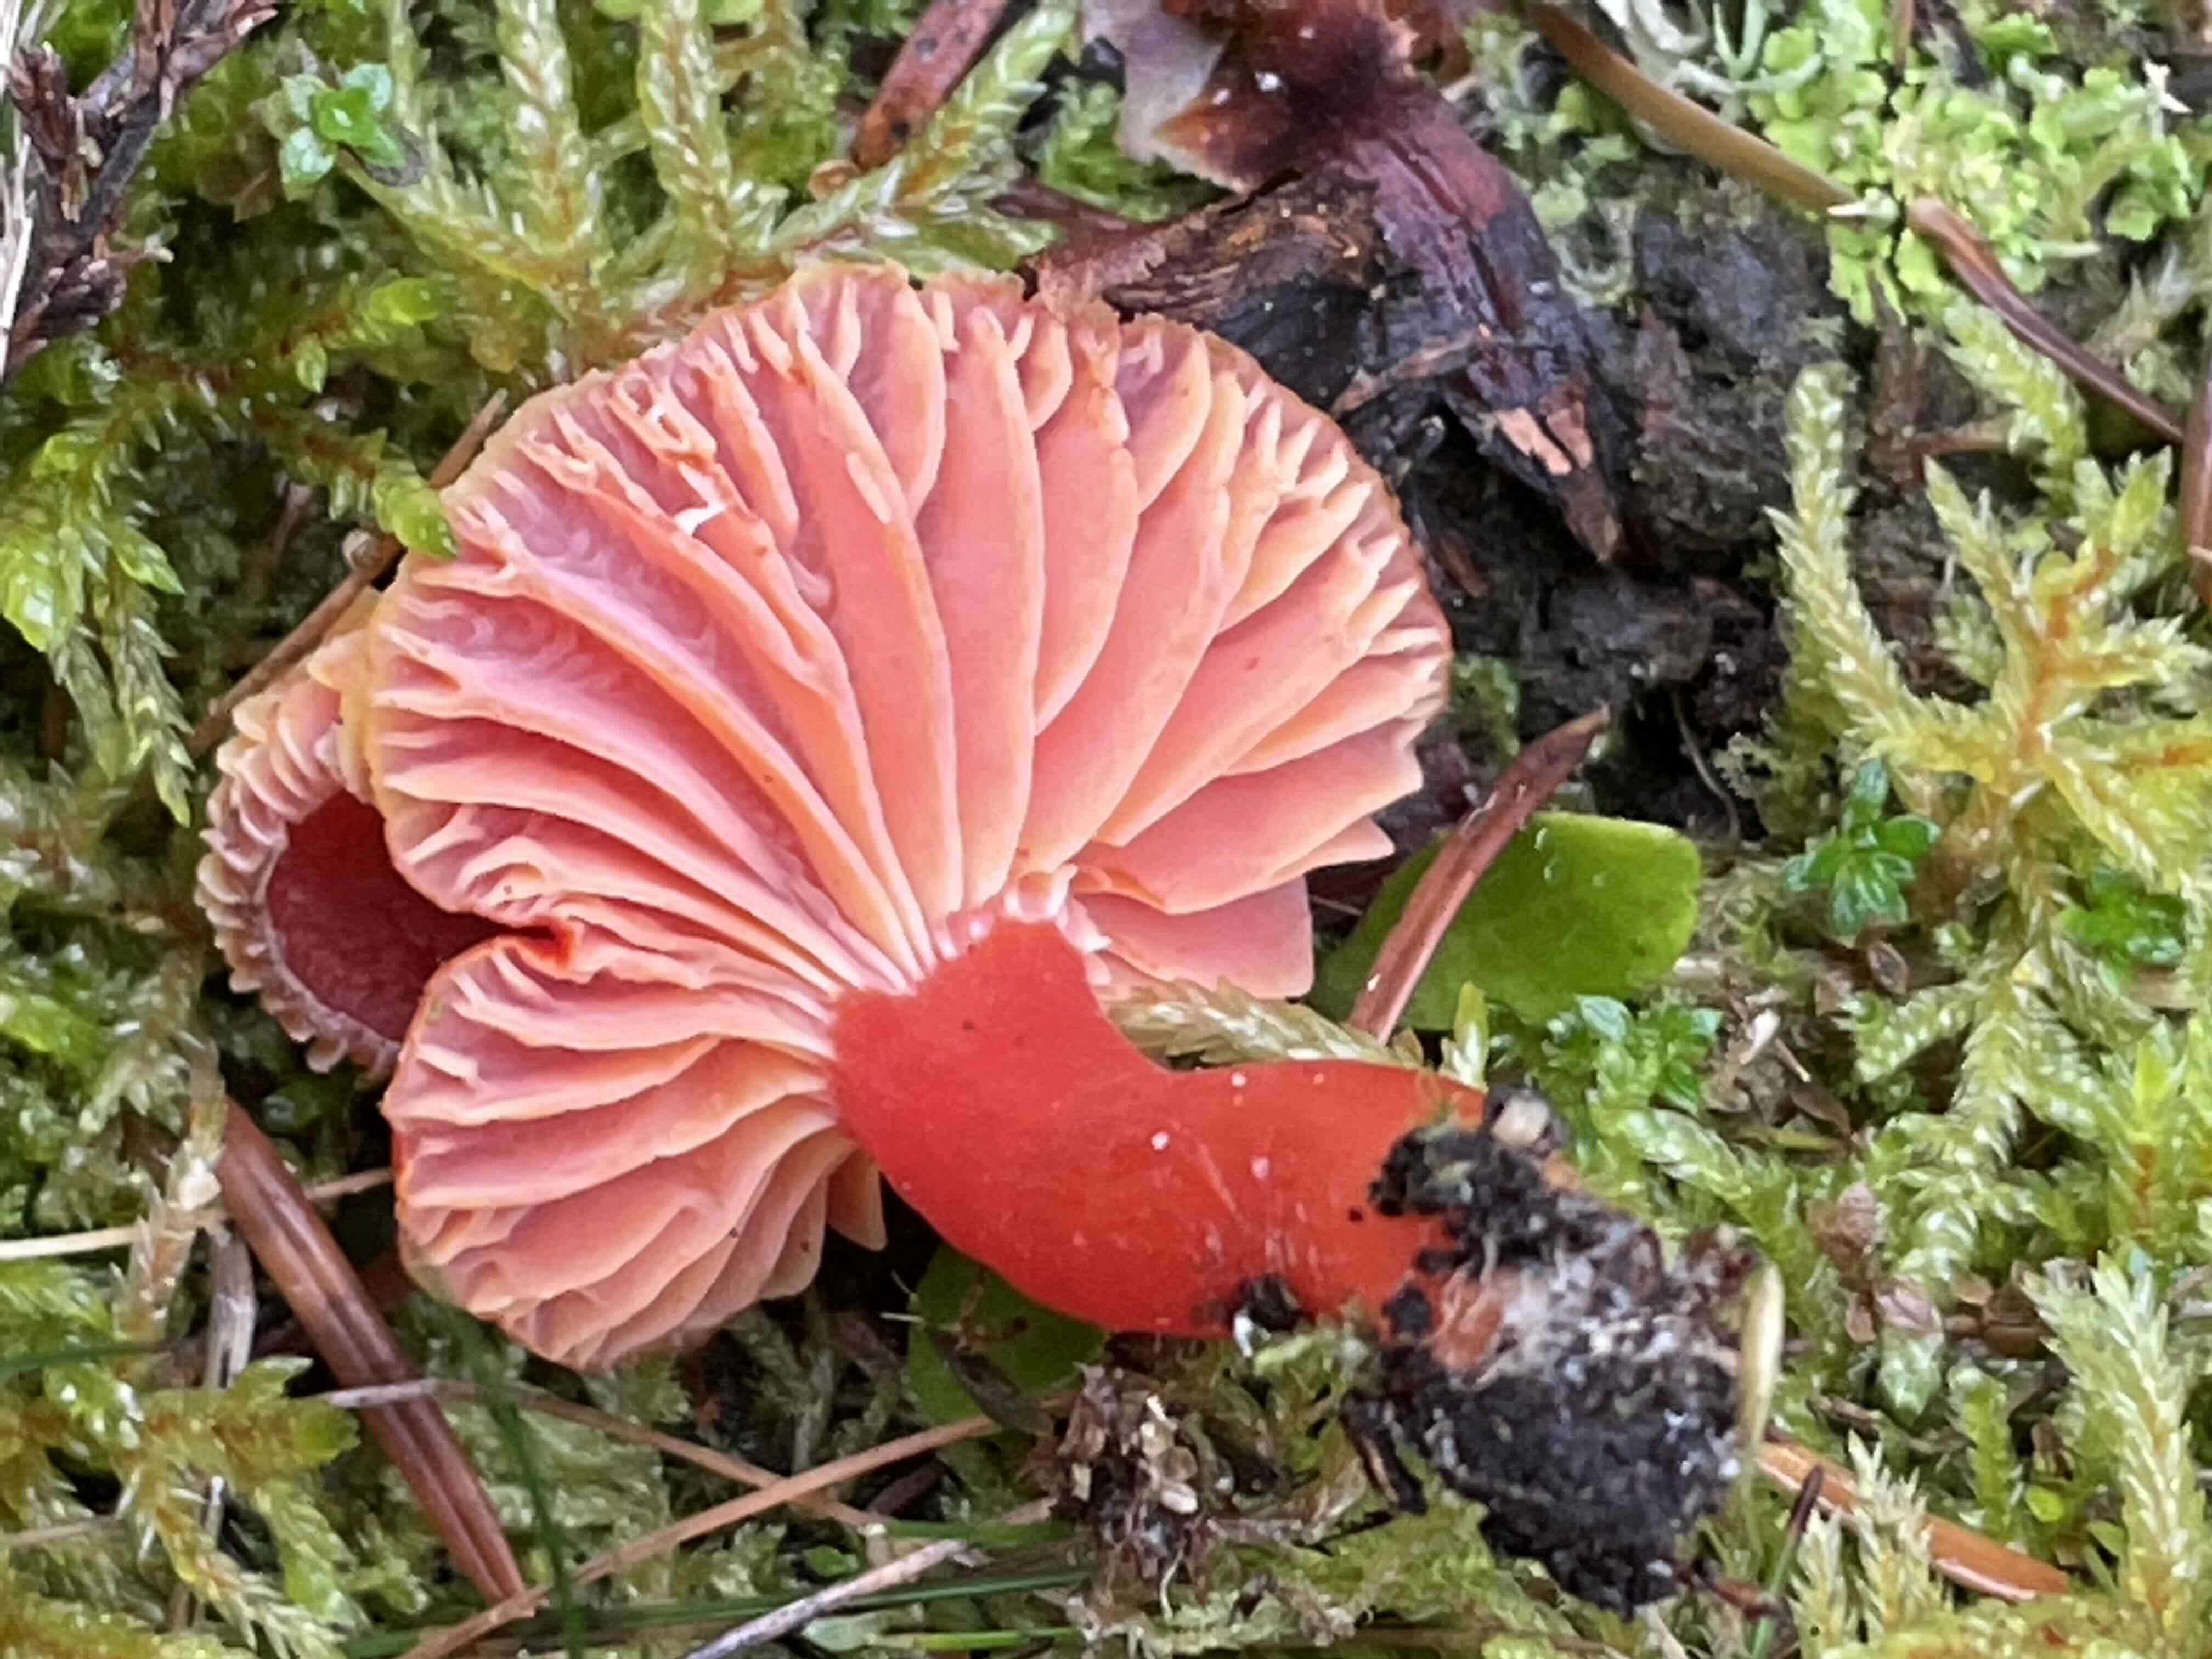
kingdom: Fungi
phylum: Basidiomycota
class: Agaricomycetes
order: Agaricales
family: Hygrophoraceae
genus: Hygrocybe
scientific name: Hygrocybe miniata
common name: mønje-vokshat
